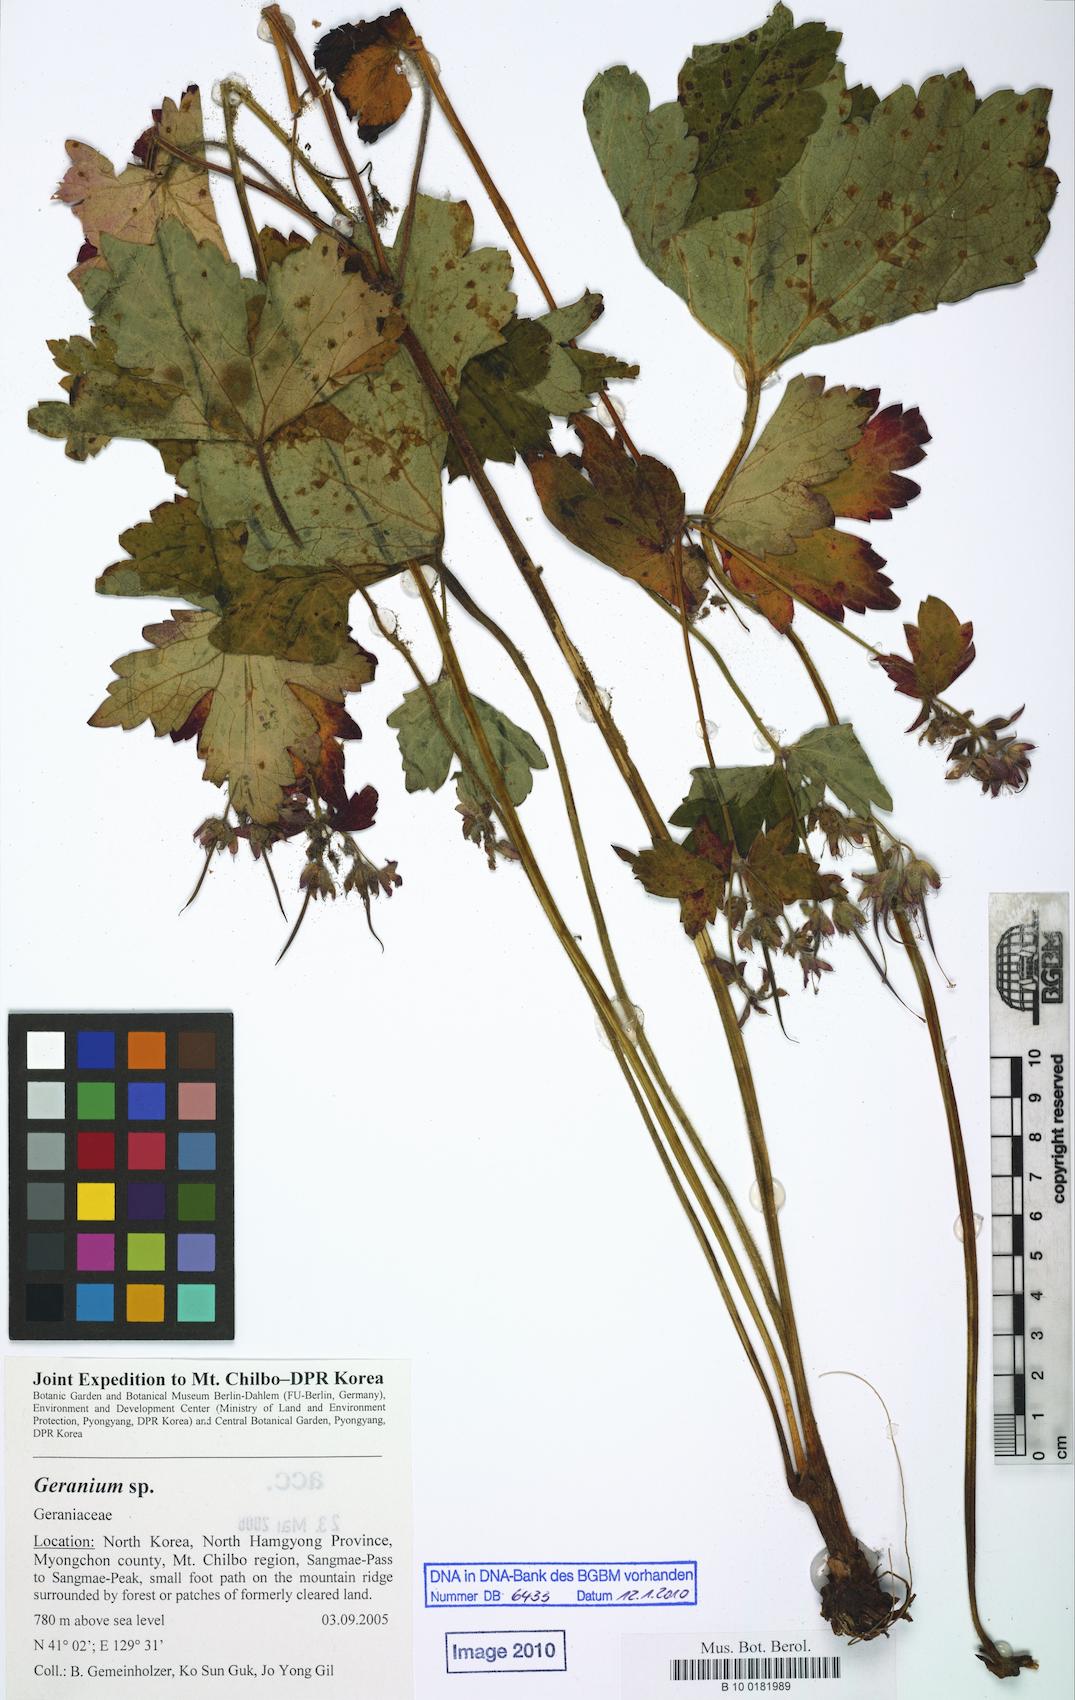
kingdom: Plantae
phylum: Tracheophyta
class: Magnoliopsida
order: Geraniales
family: Geraniaceae
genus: Geranium
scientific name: Geranium
